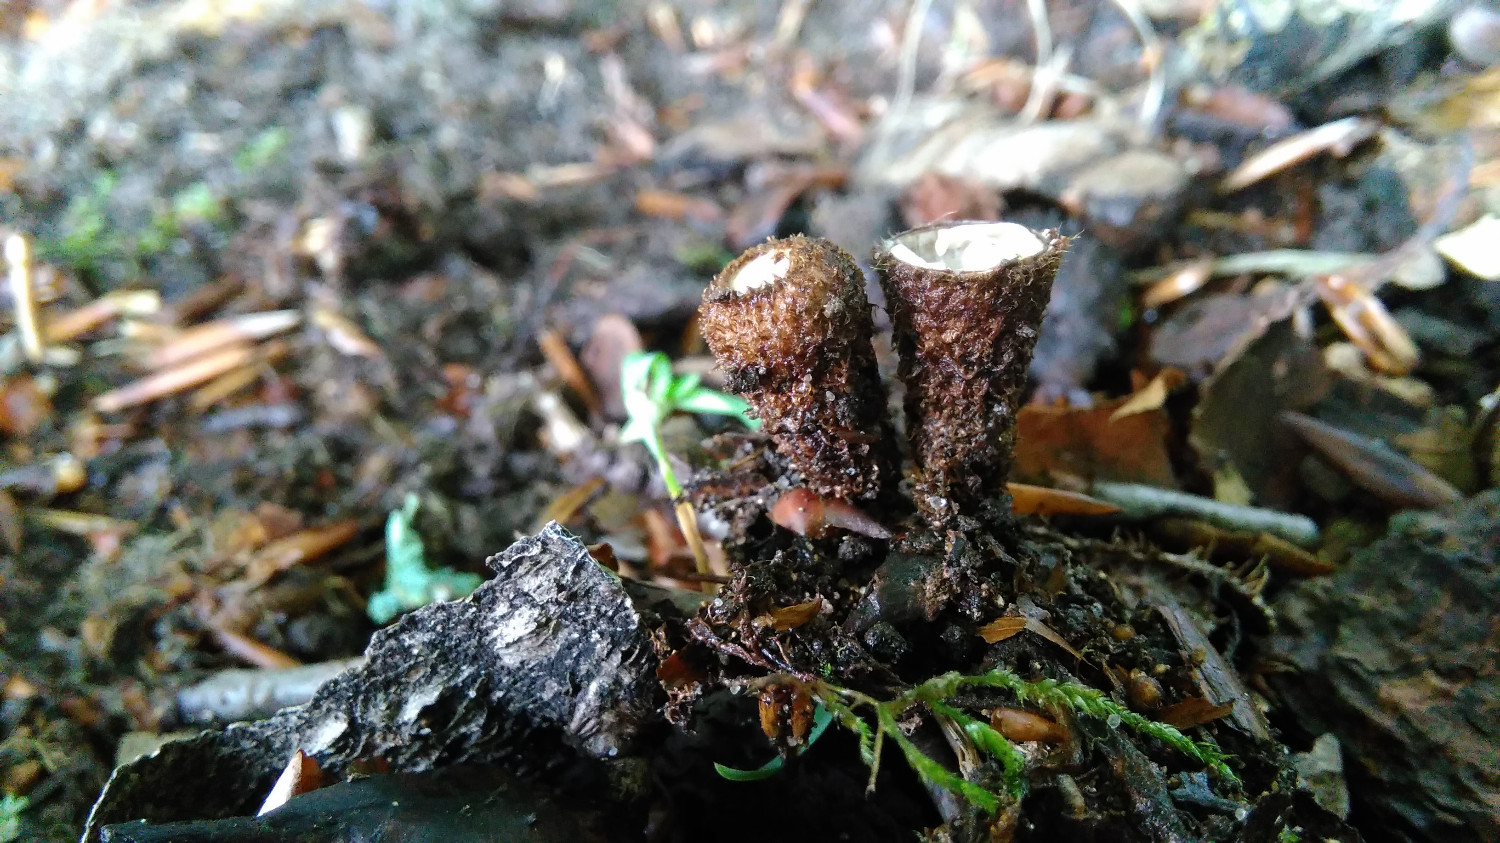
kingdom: Fungi
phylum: Basidiomycota
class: Agaricomycetes
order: Agaricales
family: Agaricaceae
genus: Cyathus
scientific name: Cyathus striatus
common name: stribet redesvamp
